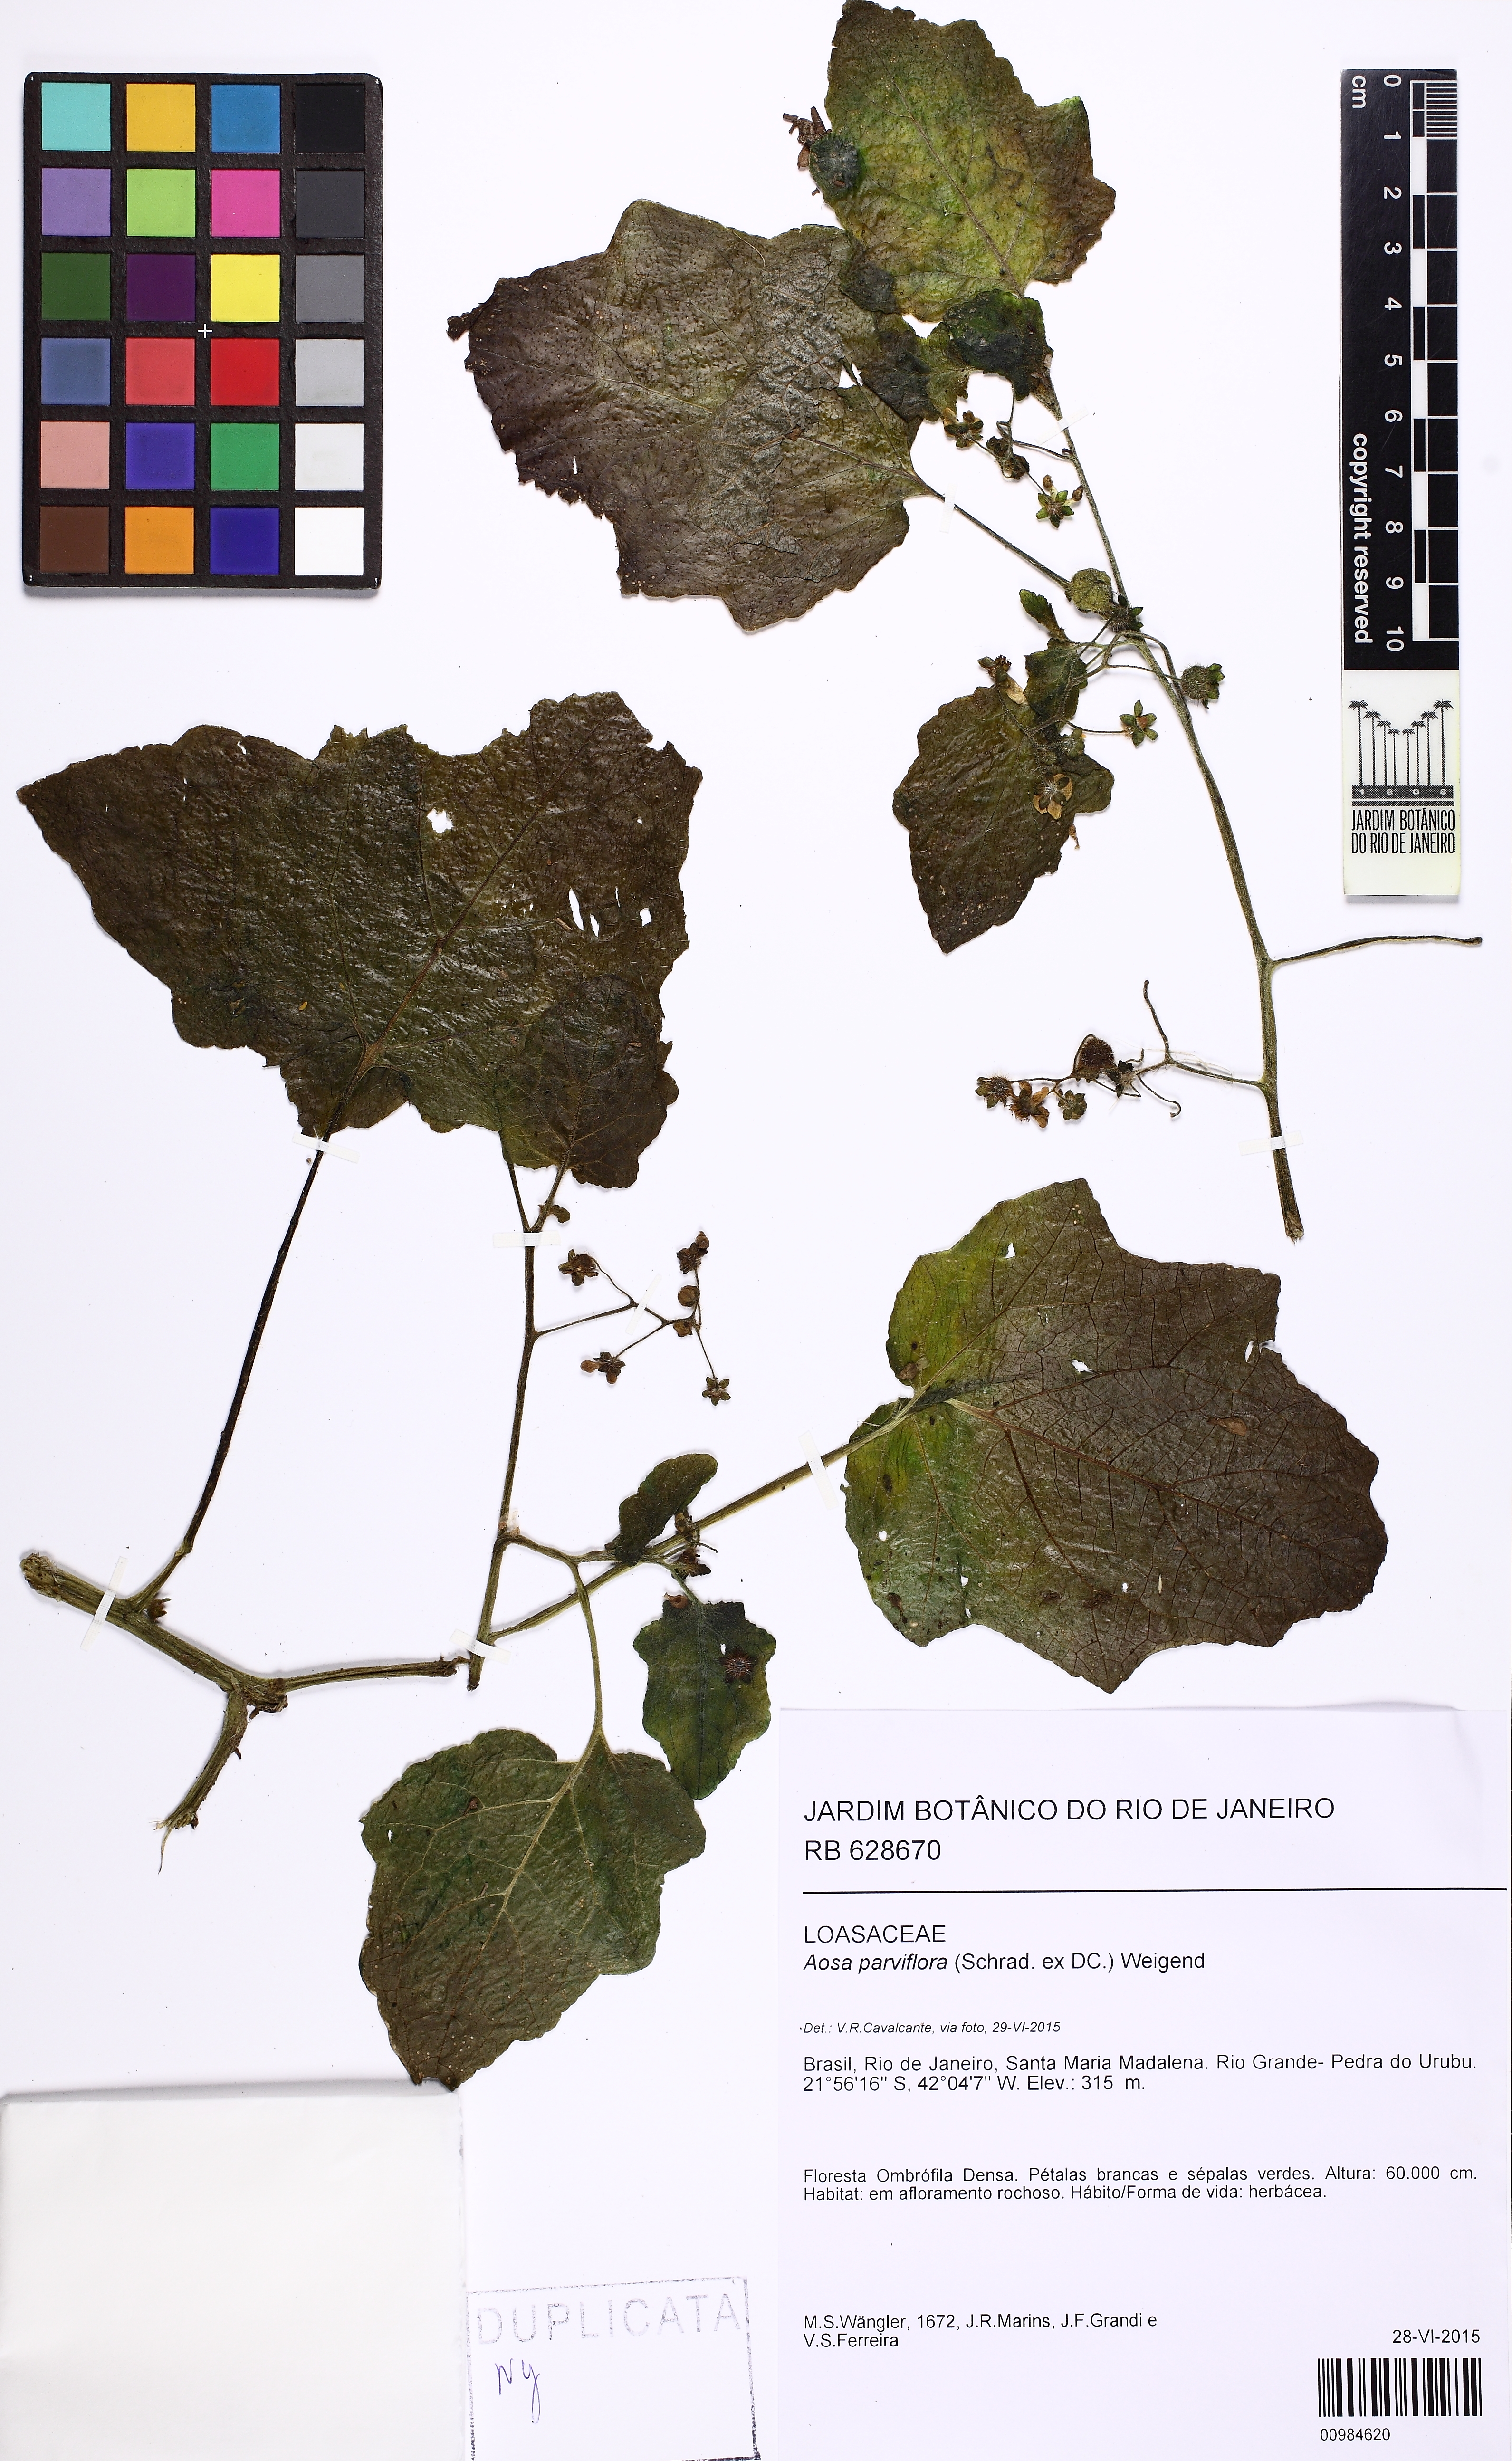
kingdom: Plantae
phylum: Tracheophyta
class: Magnoliopsida
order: Cornales
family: Loasaceae
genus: Aosa
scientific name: Aosa parviflora
